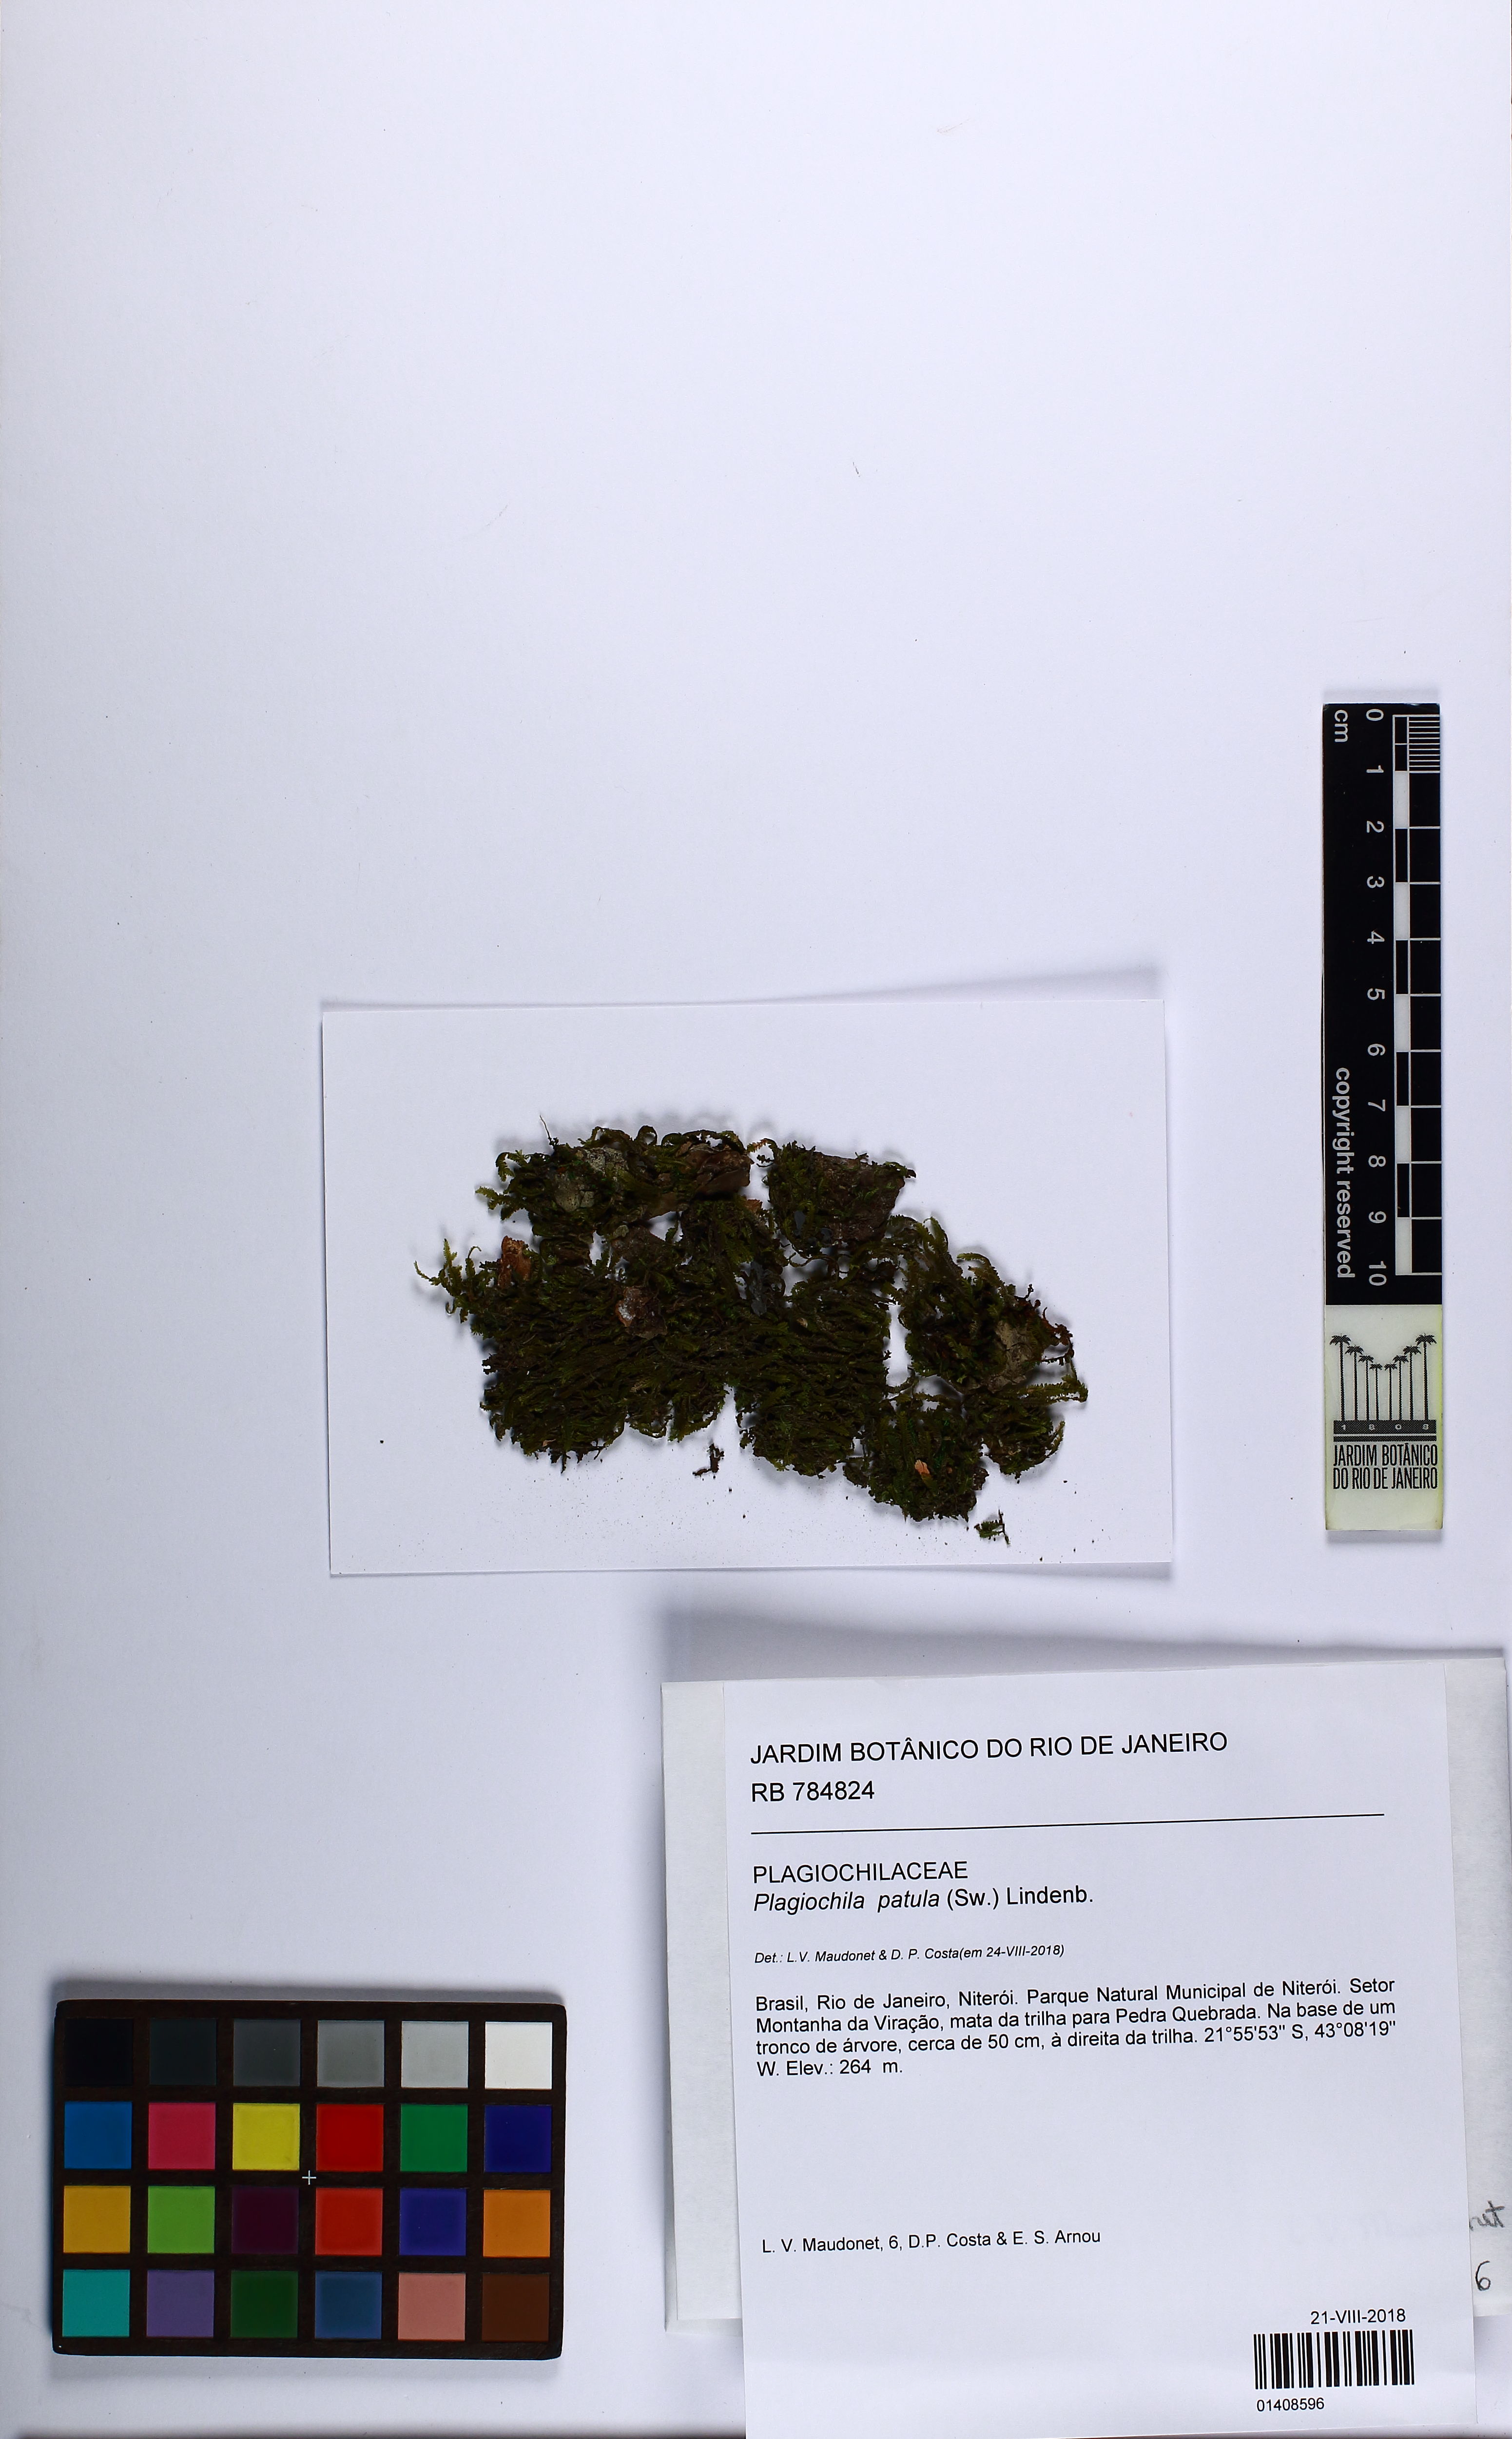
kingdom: Plantae
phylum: Marchantiophyta
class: Jungermanniopsida
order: Jungermanniales
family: Plagiochilaceae
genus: Plagiochila
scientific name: Plagiochila patula
